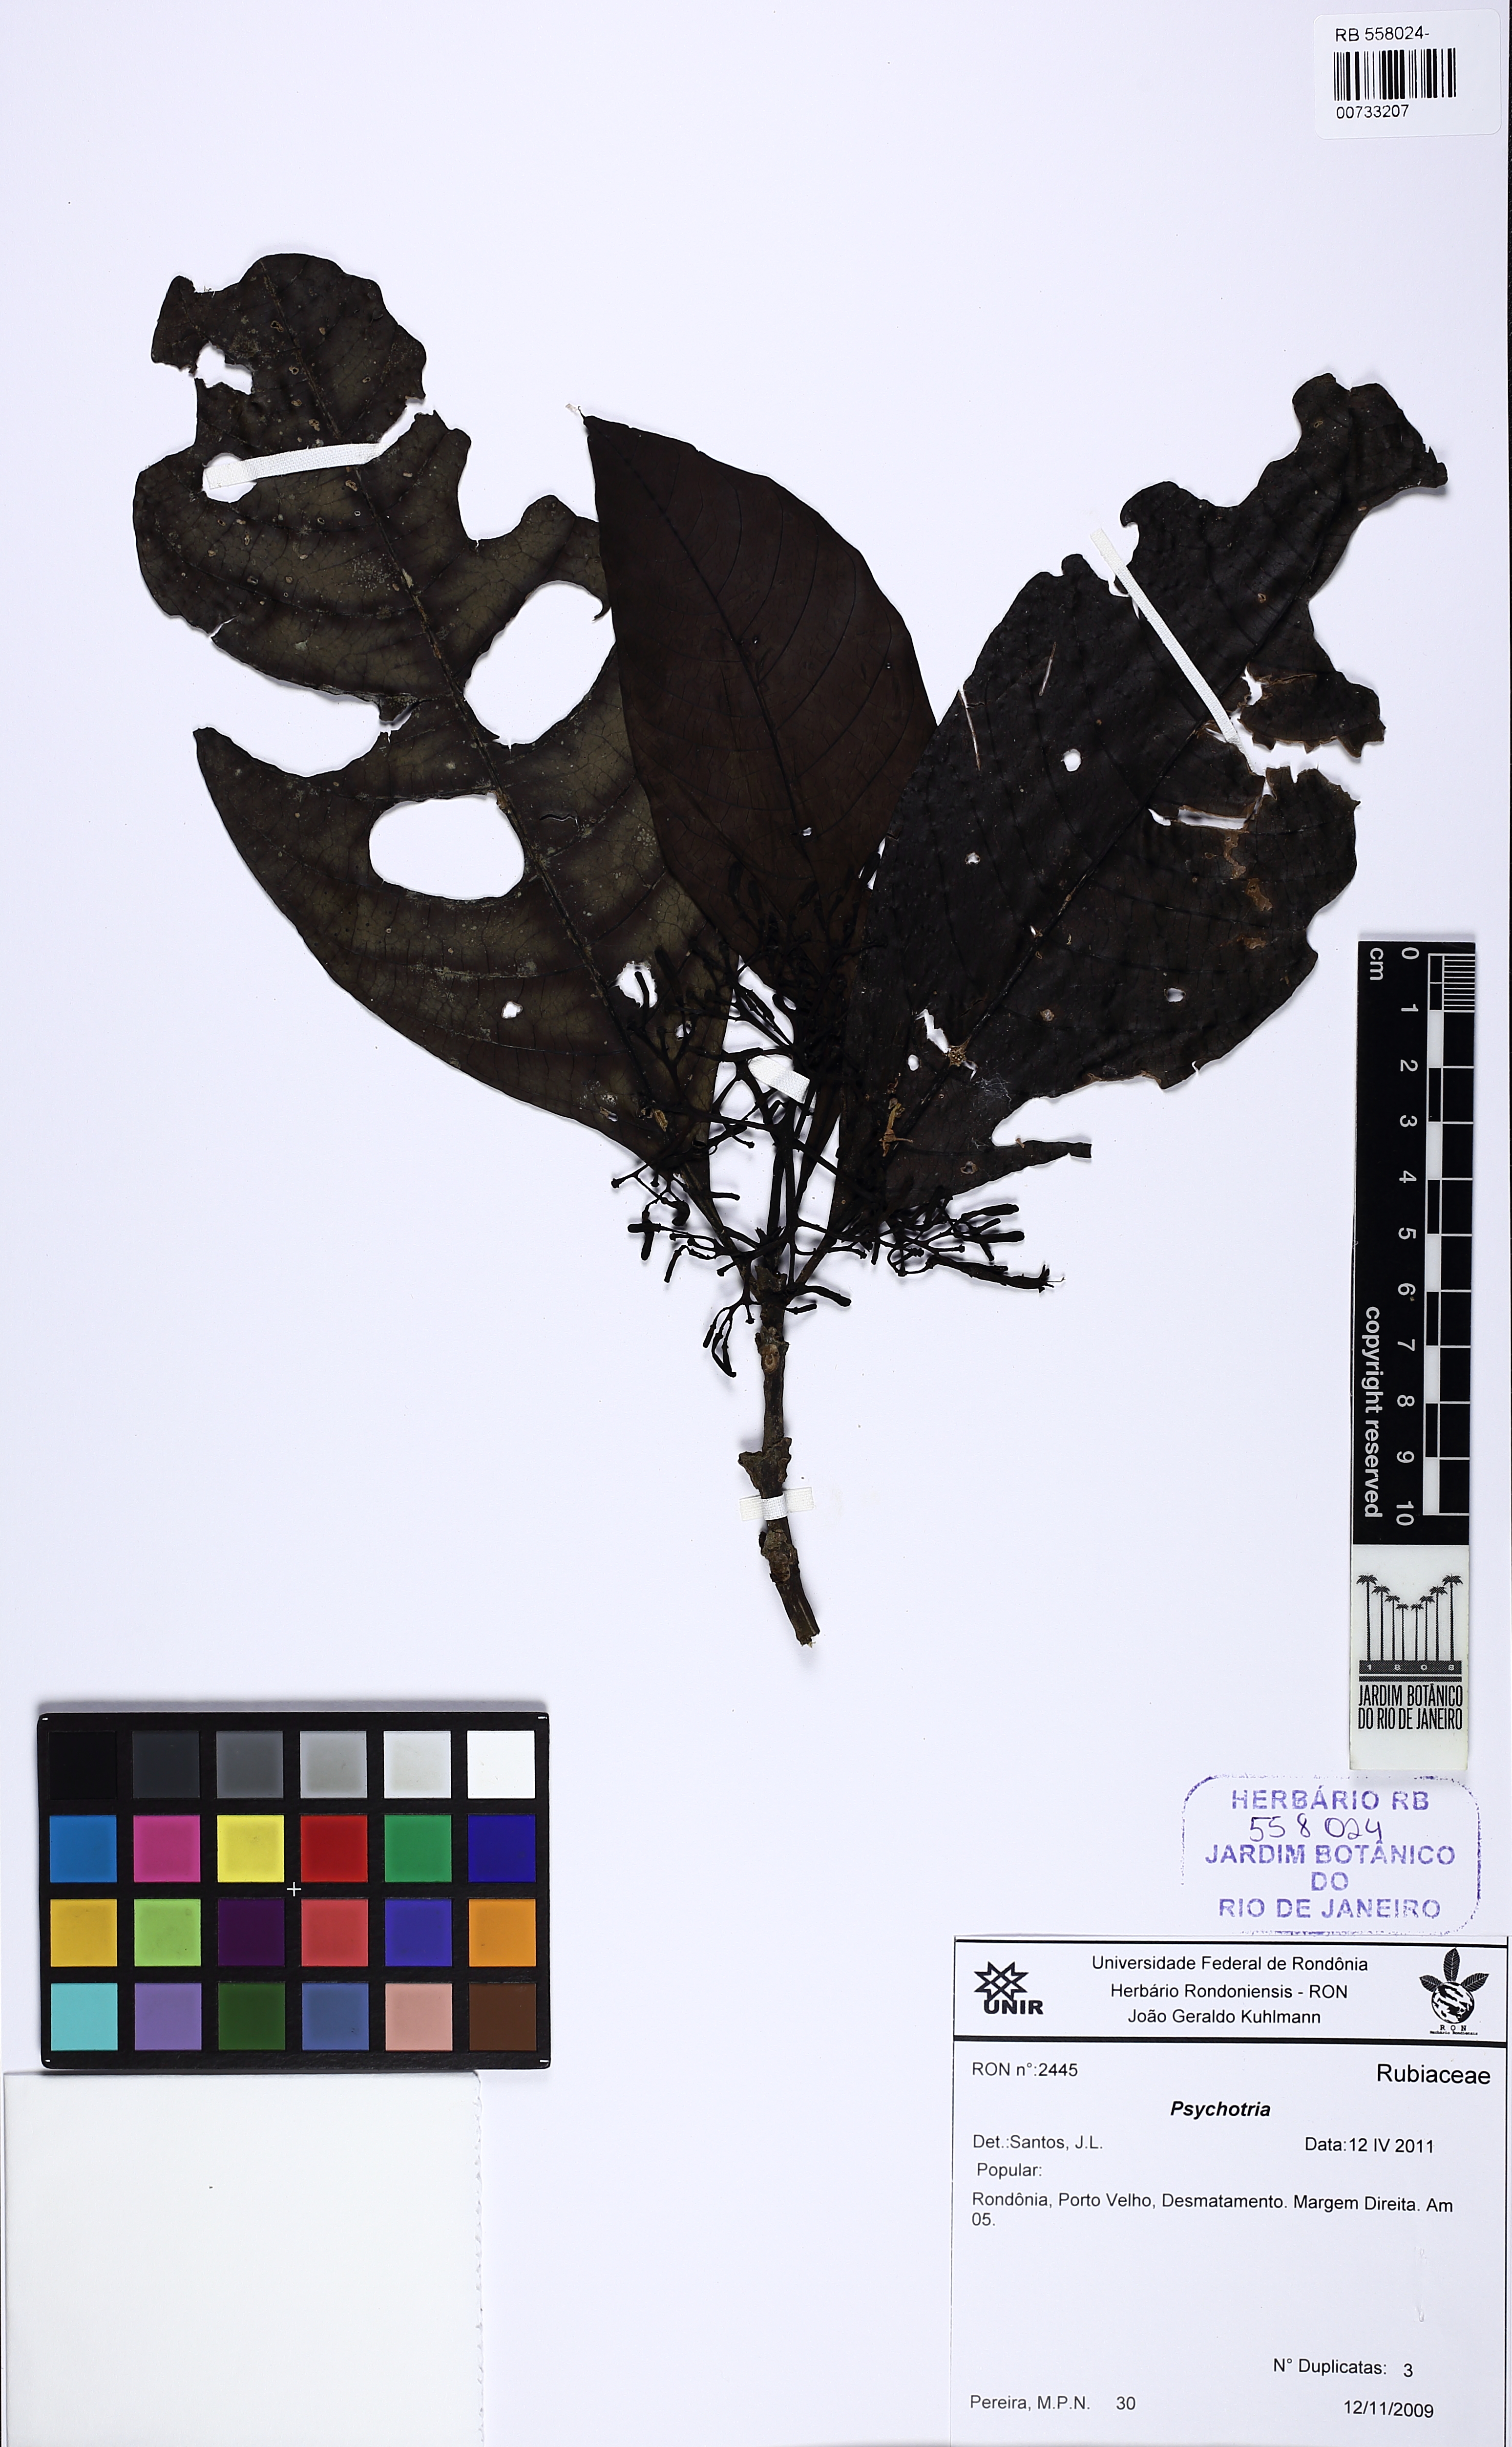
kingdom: Plantae
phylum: Tracheophyta
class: Magnoliopsida
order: Gentianales
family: Rubiaceae
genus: Psychotria
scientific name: Psychotria
